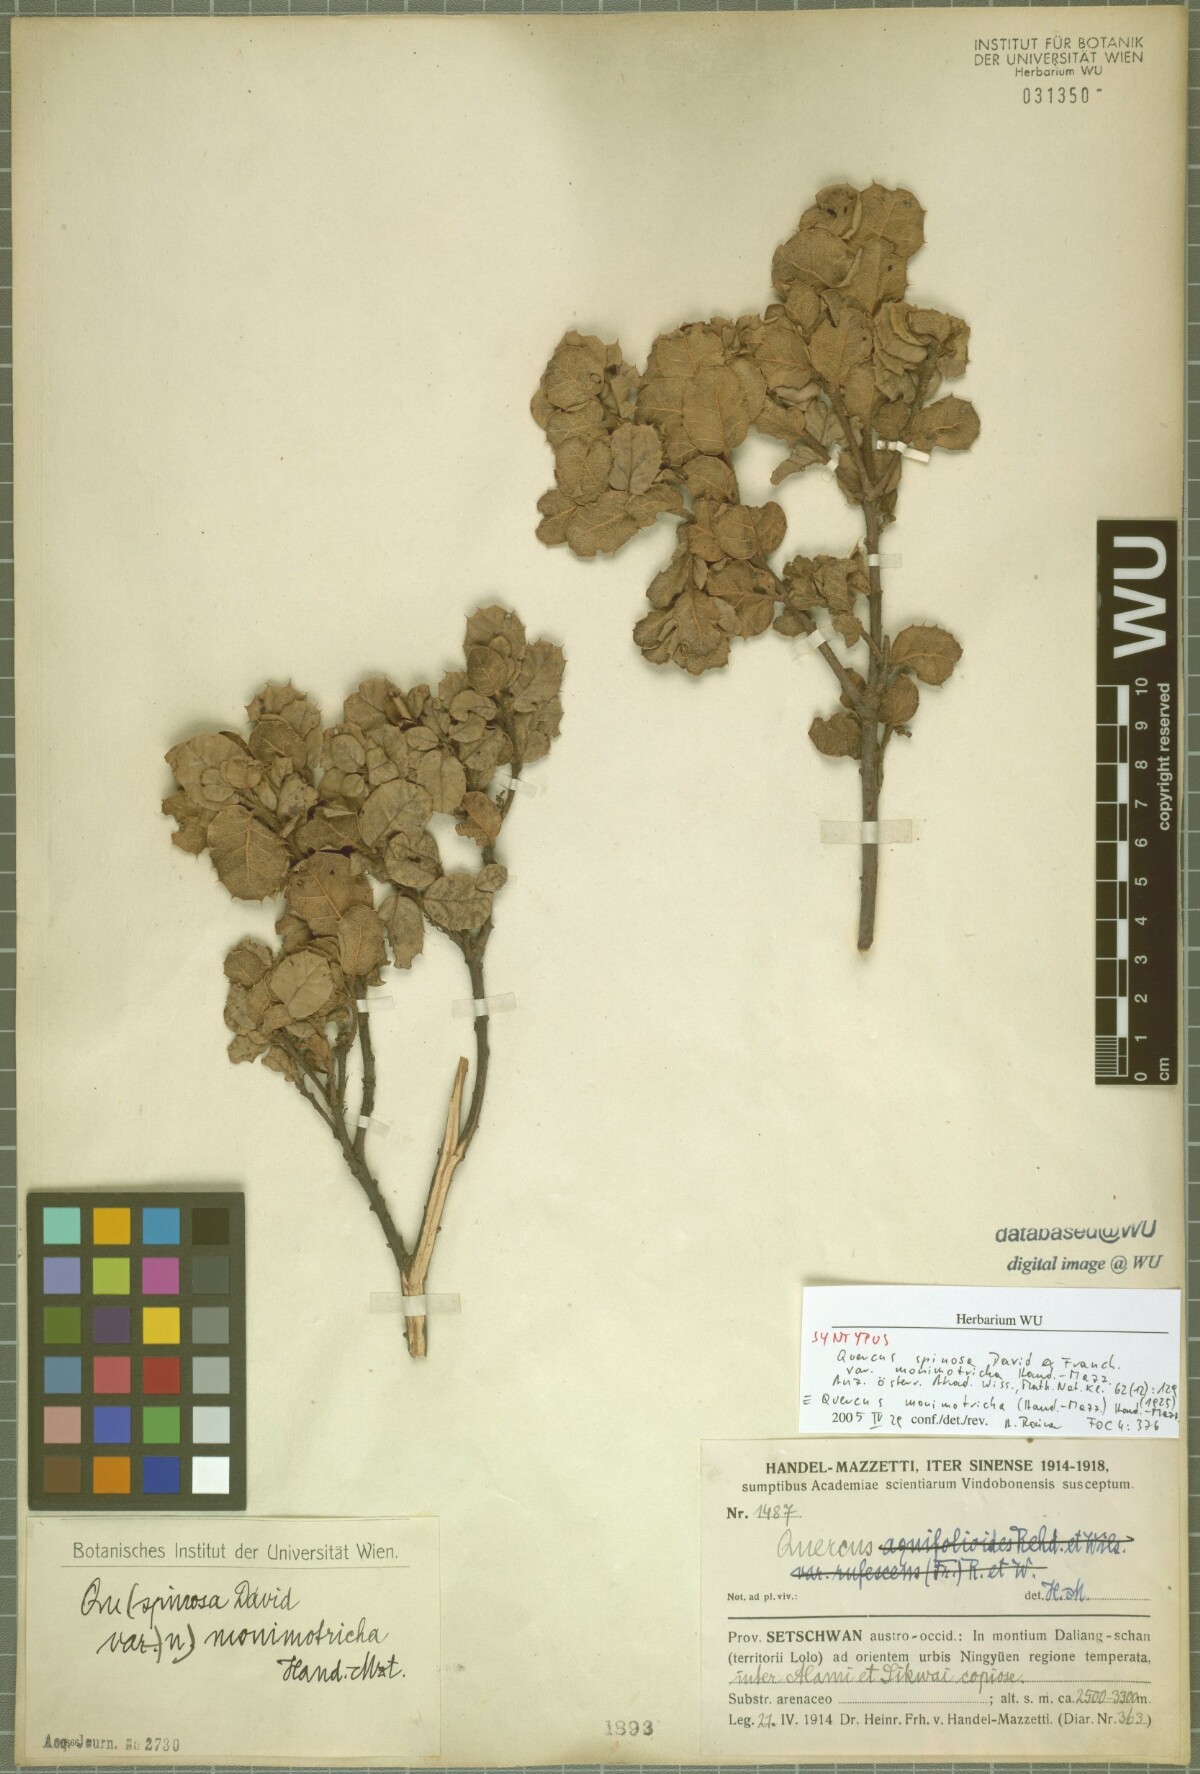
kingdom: Plantae
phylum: Tracheophyta
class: Magnoliopsida
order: Fagales
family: Fagaceae
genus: Quercus
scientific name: Quercus monimotricha
